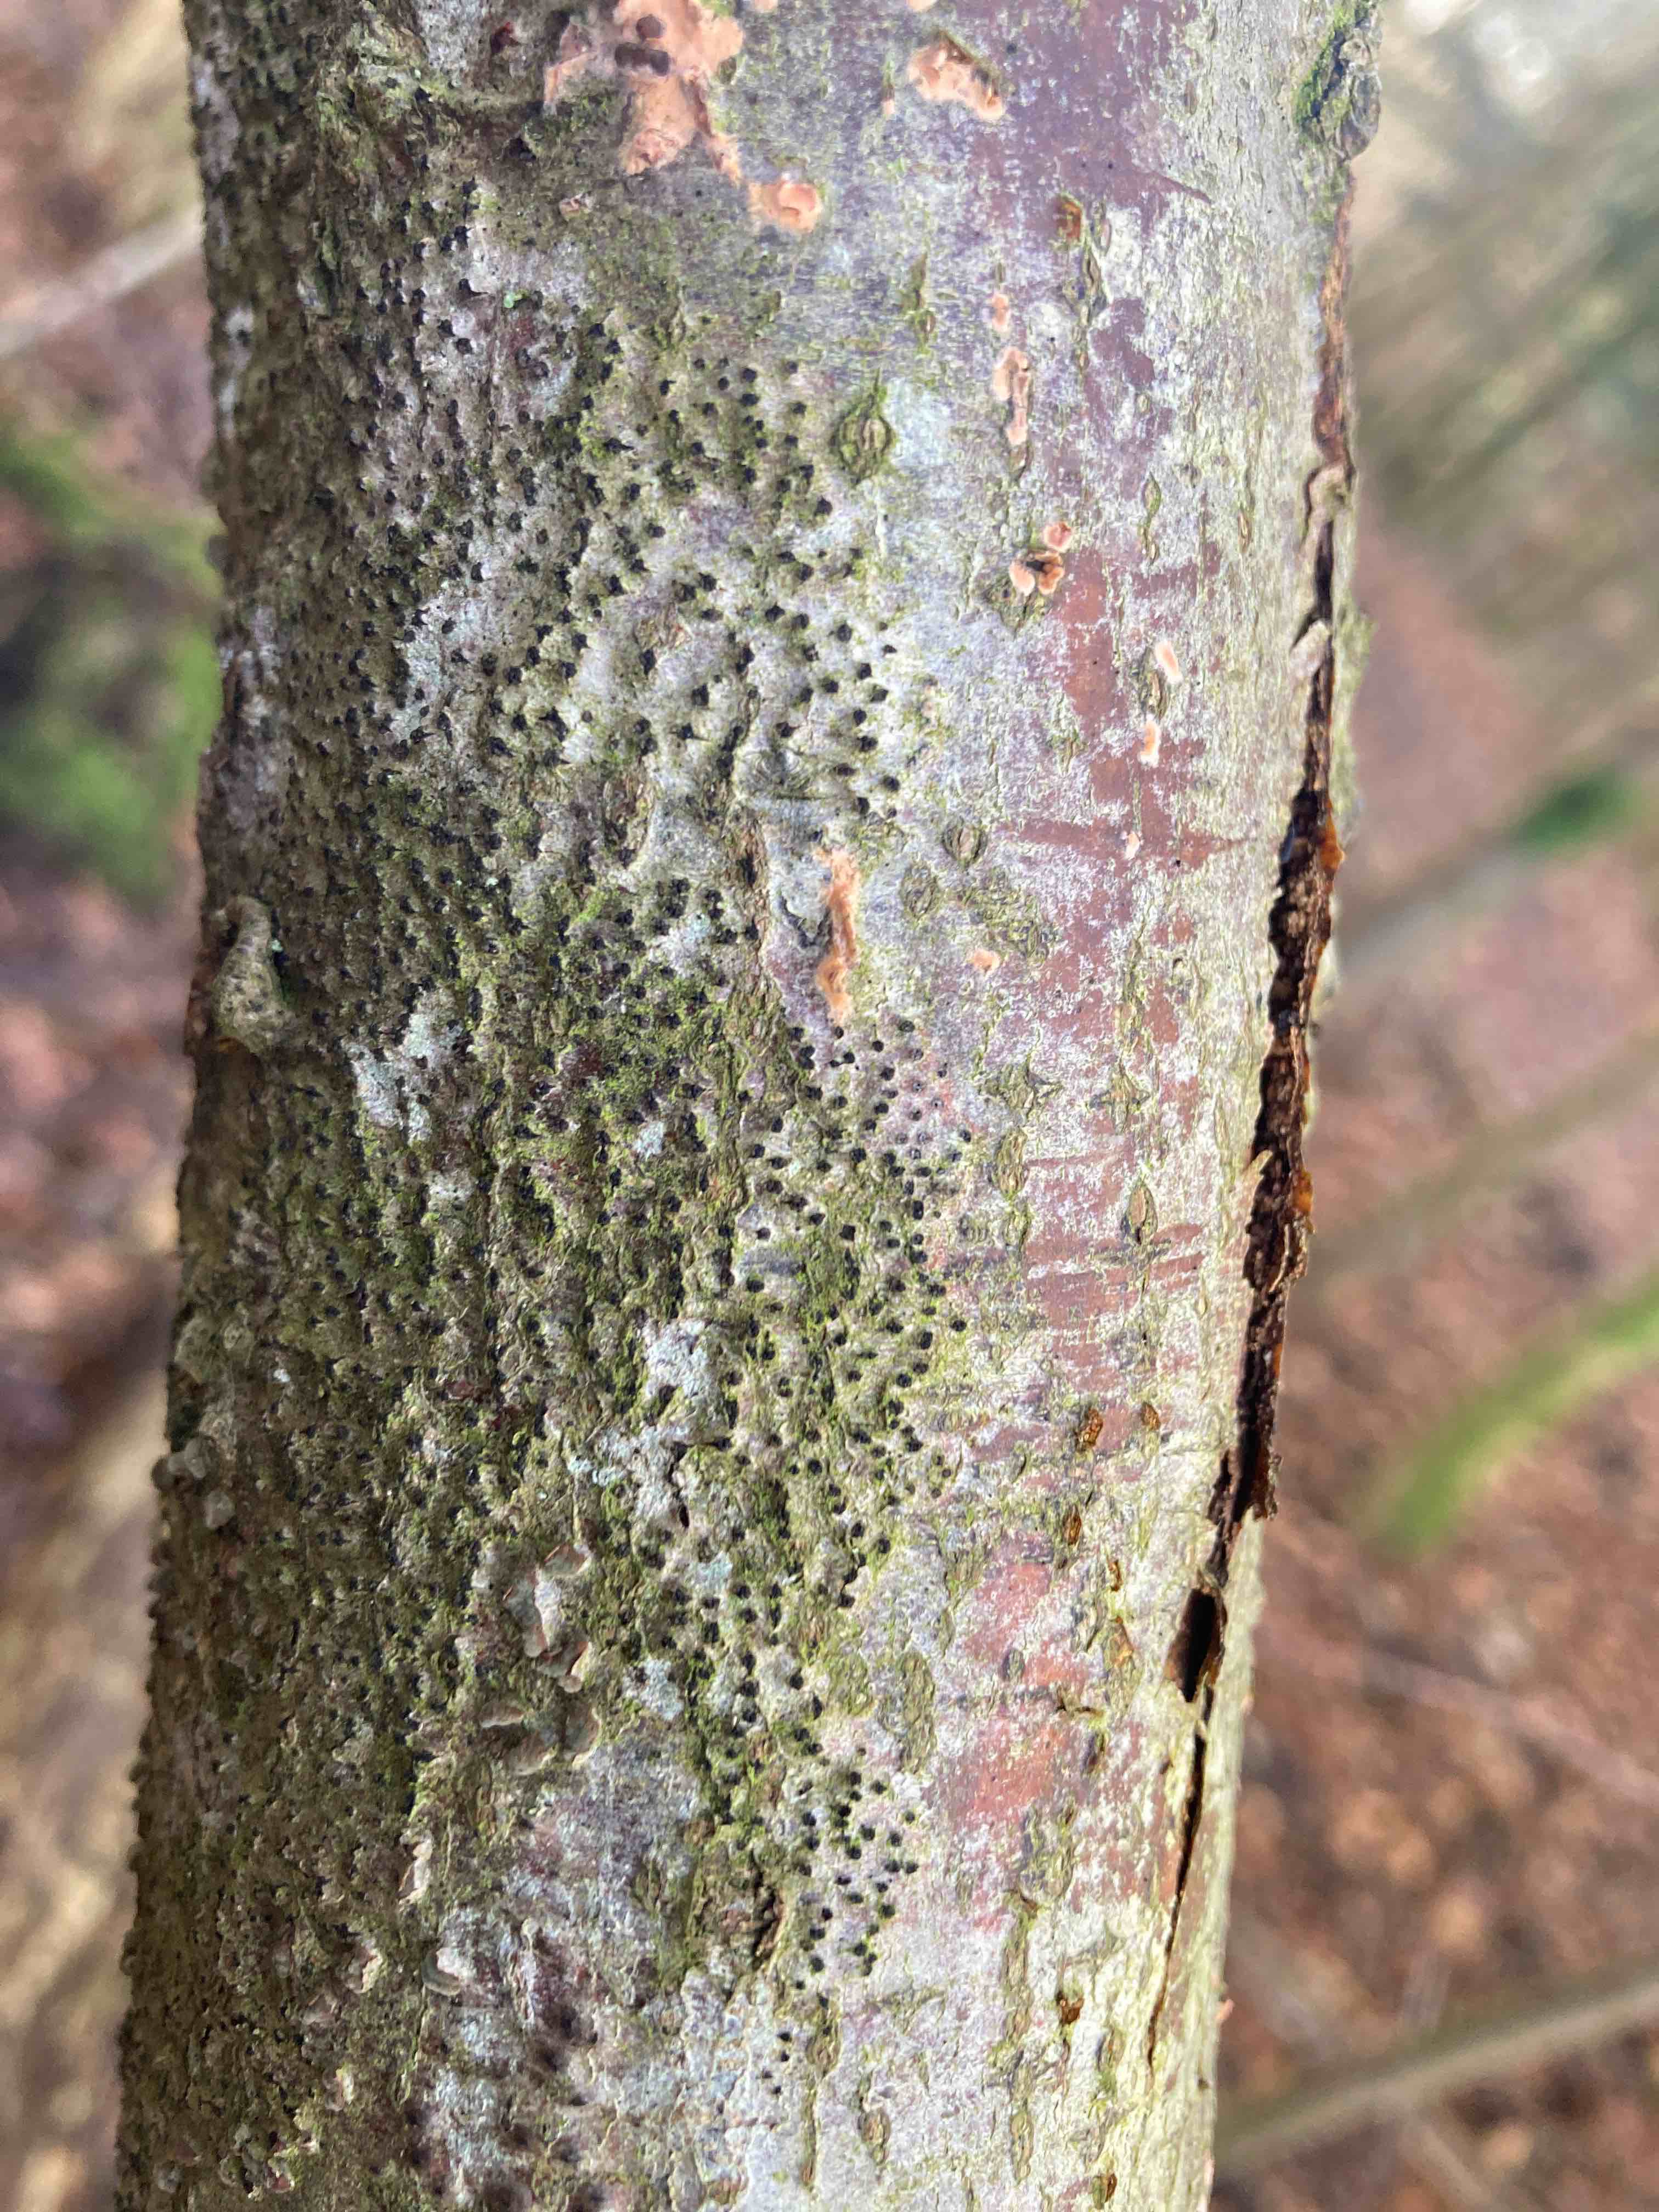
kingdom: Fungi
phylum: Ascomycota
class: Sordariomycetes
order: Xylariales
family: Diatrypaceae
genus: Eutypella
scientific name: Eutypella quaternata
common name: bøge-korsprik
